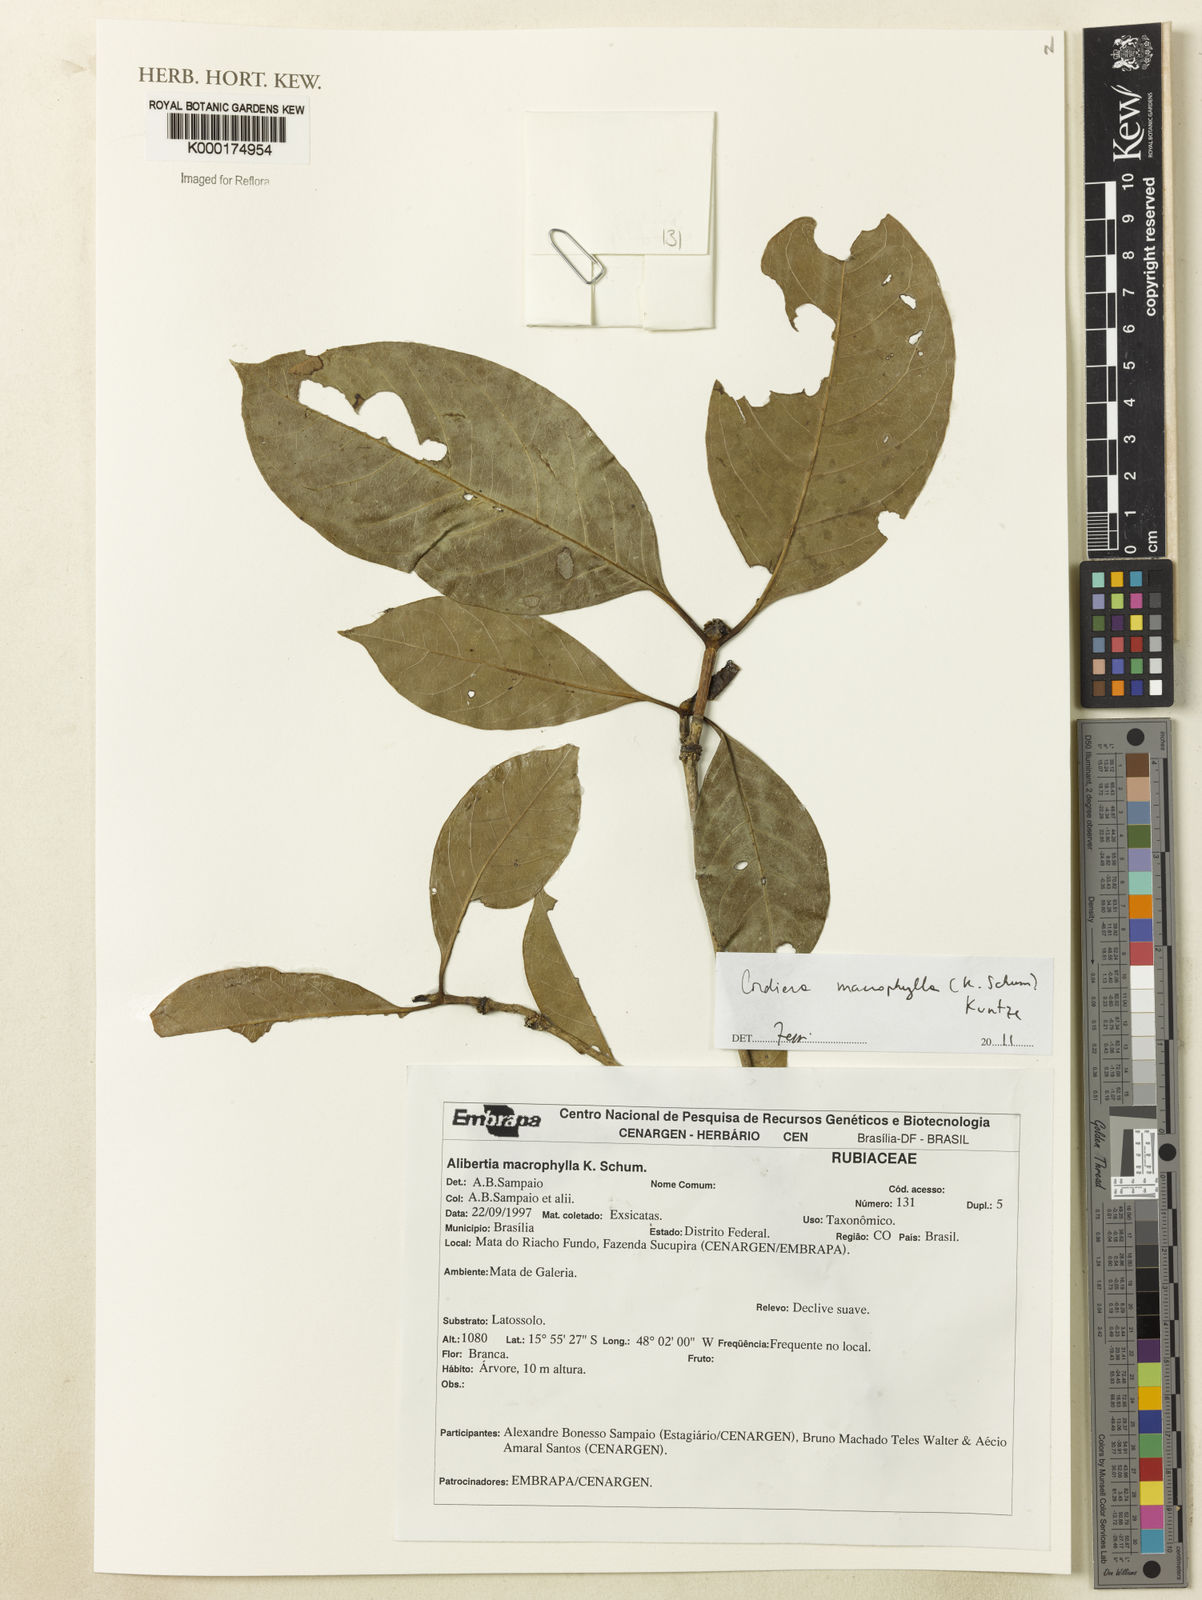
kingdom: Plantae
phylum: Tracheophyta
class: Magnoliopsida
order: Gentianales
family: Rubiaceae
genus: Cordiera
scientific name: Cordiera macrophylla
